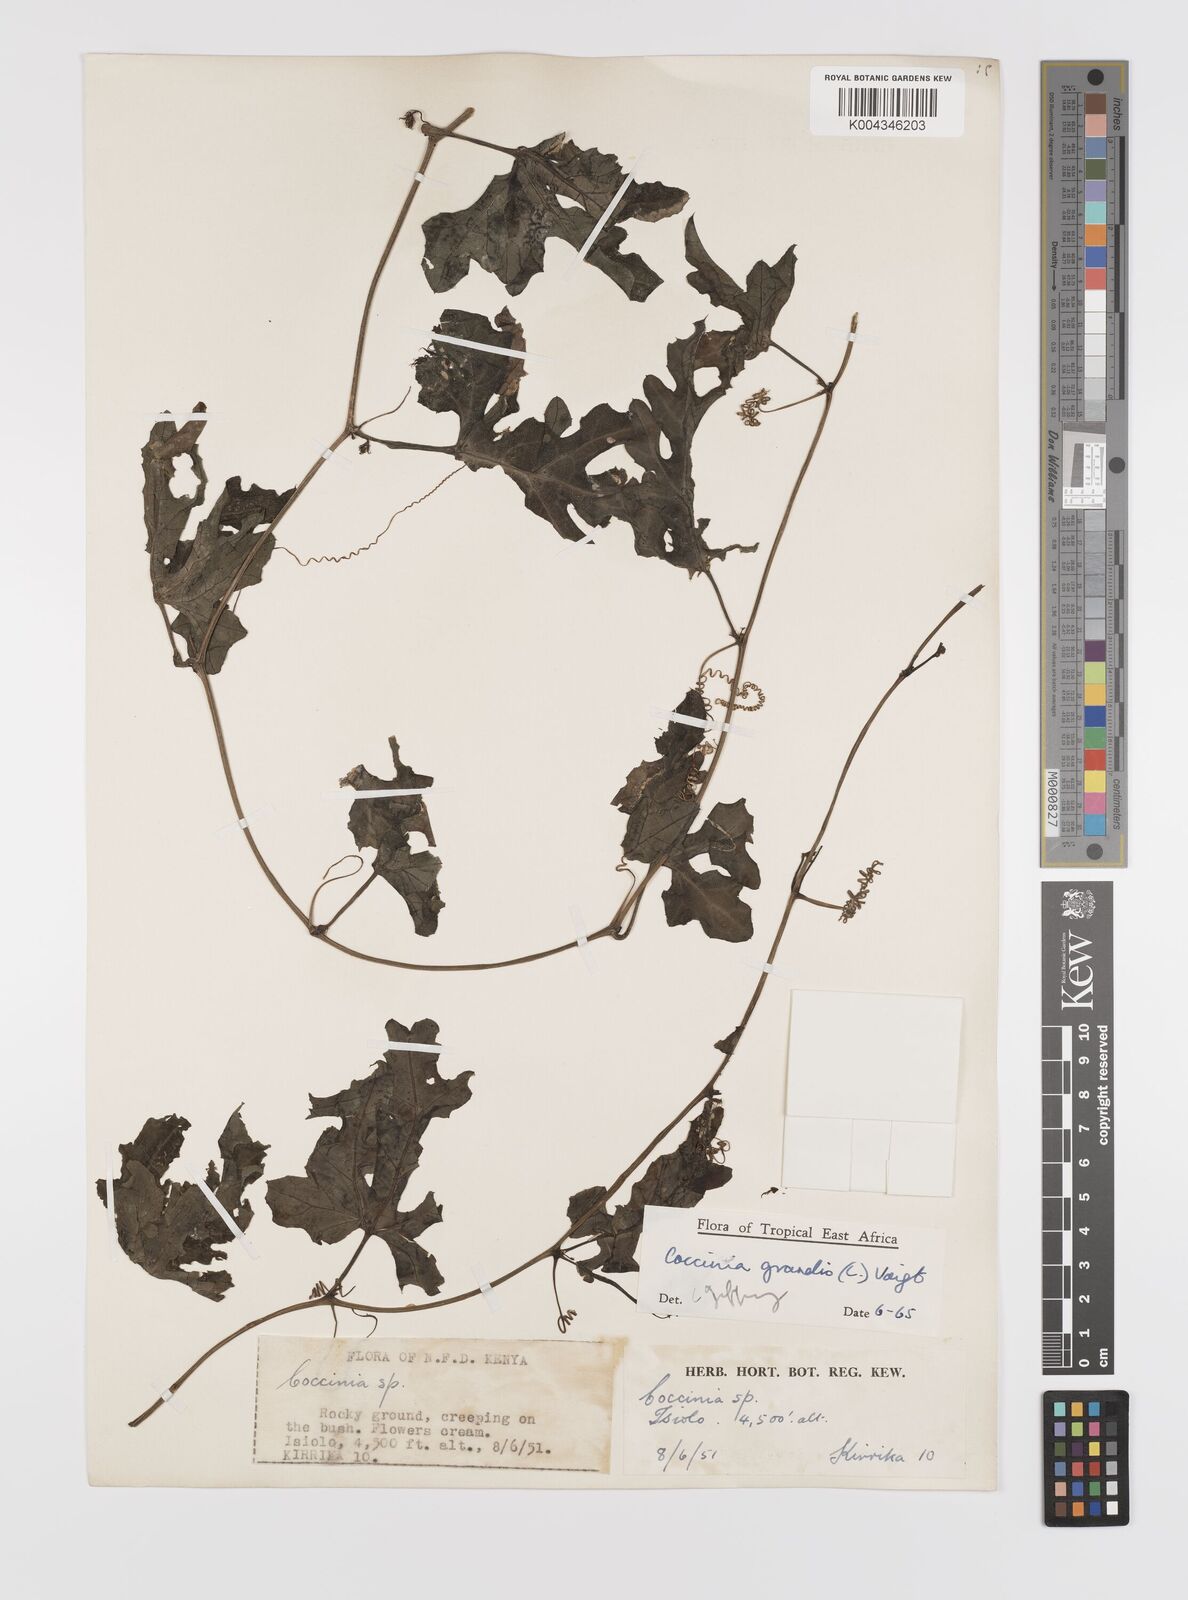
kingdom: Plantae
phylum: Tracheophyta
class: Magnoliopsida
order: Cucurbitales
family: Cucurbitaceae
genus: Coccinia
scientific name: Coccinia grandis
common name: Ivy gourd
